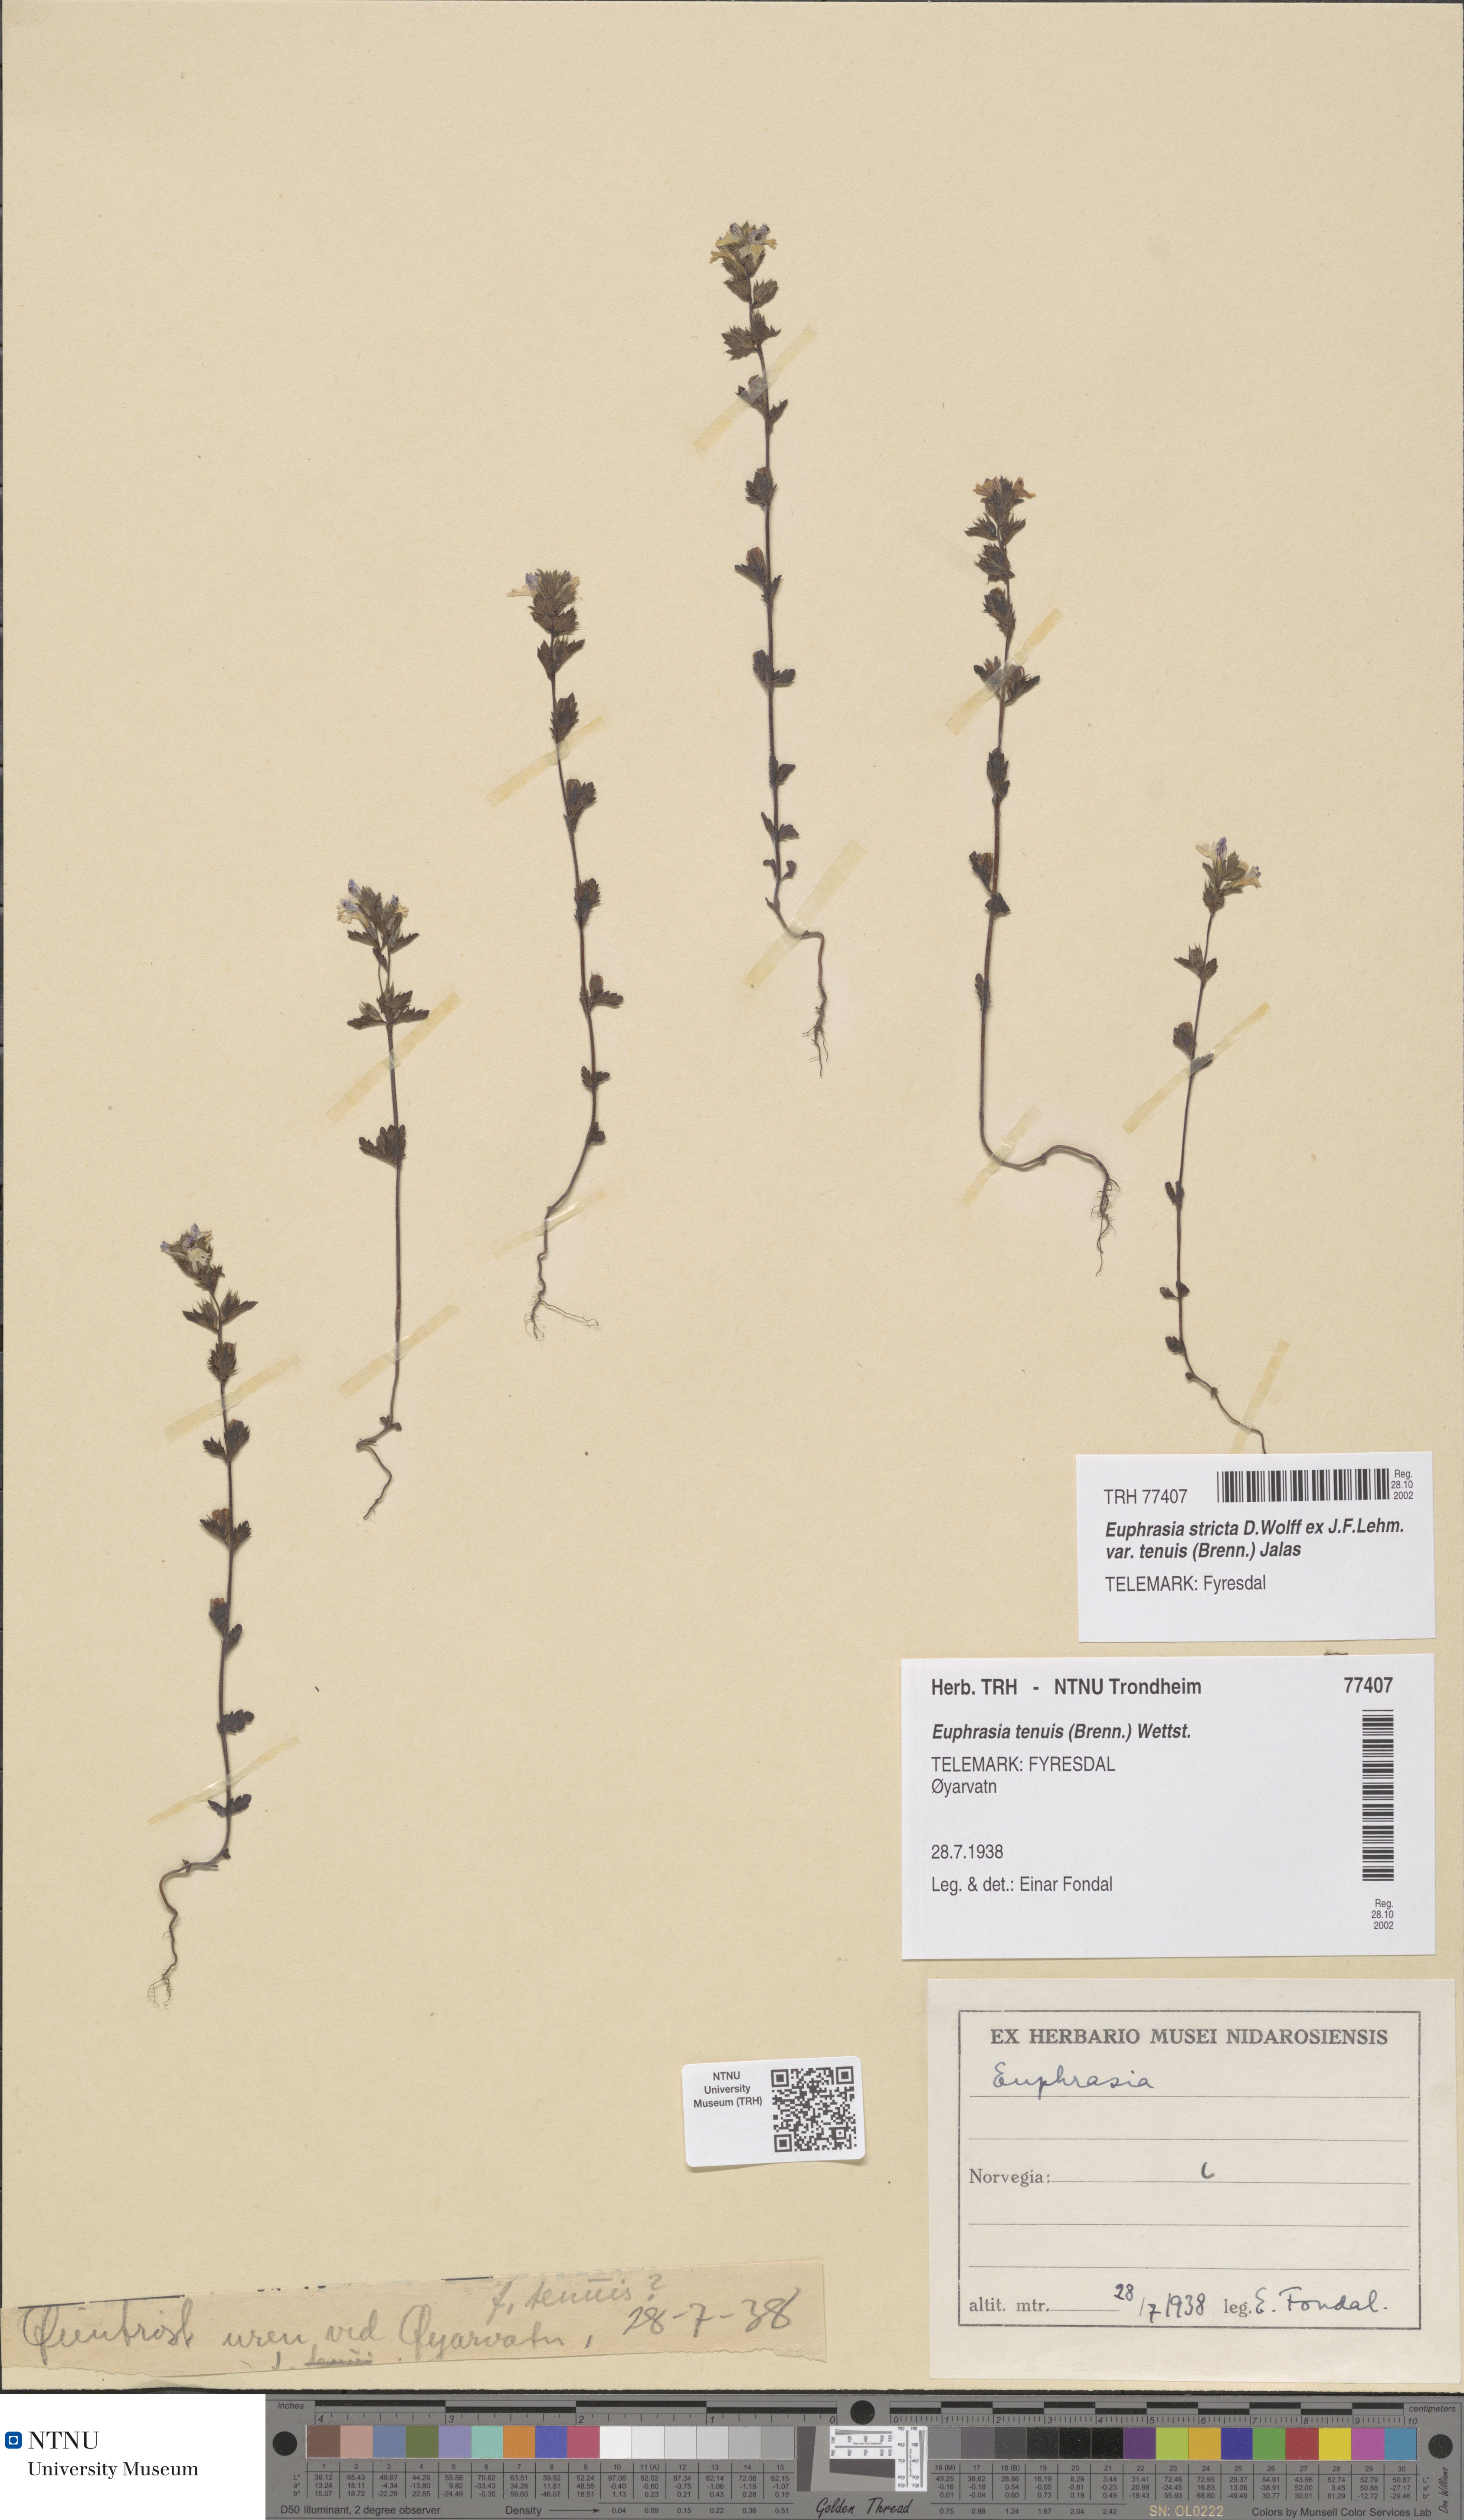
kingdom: Plantae
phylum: Tracheophyta
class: Magnoliopsida
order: Lamiales
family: Orobanchaceae
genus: Euphrasia
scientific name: Euphrasia vernalis
